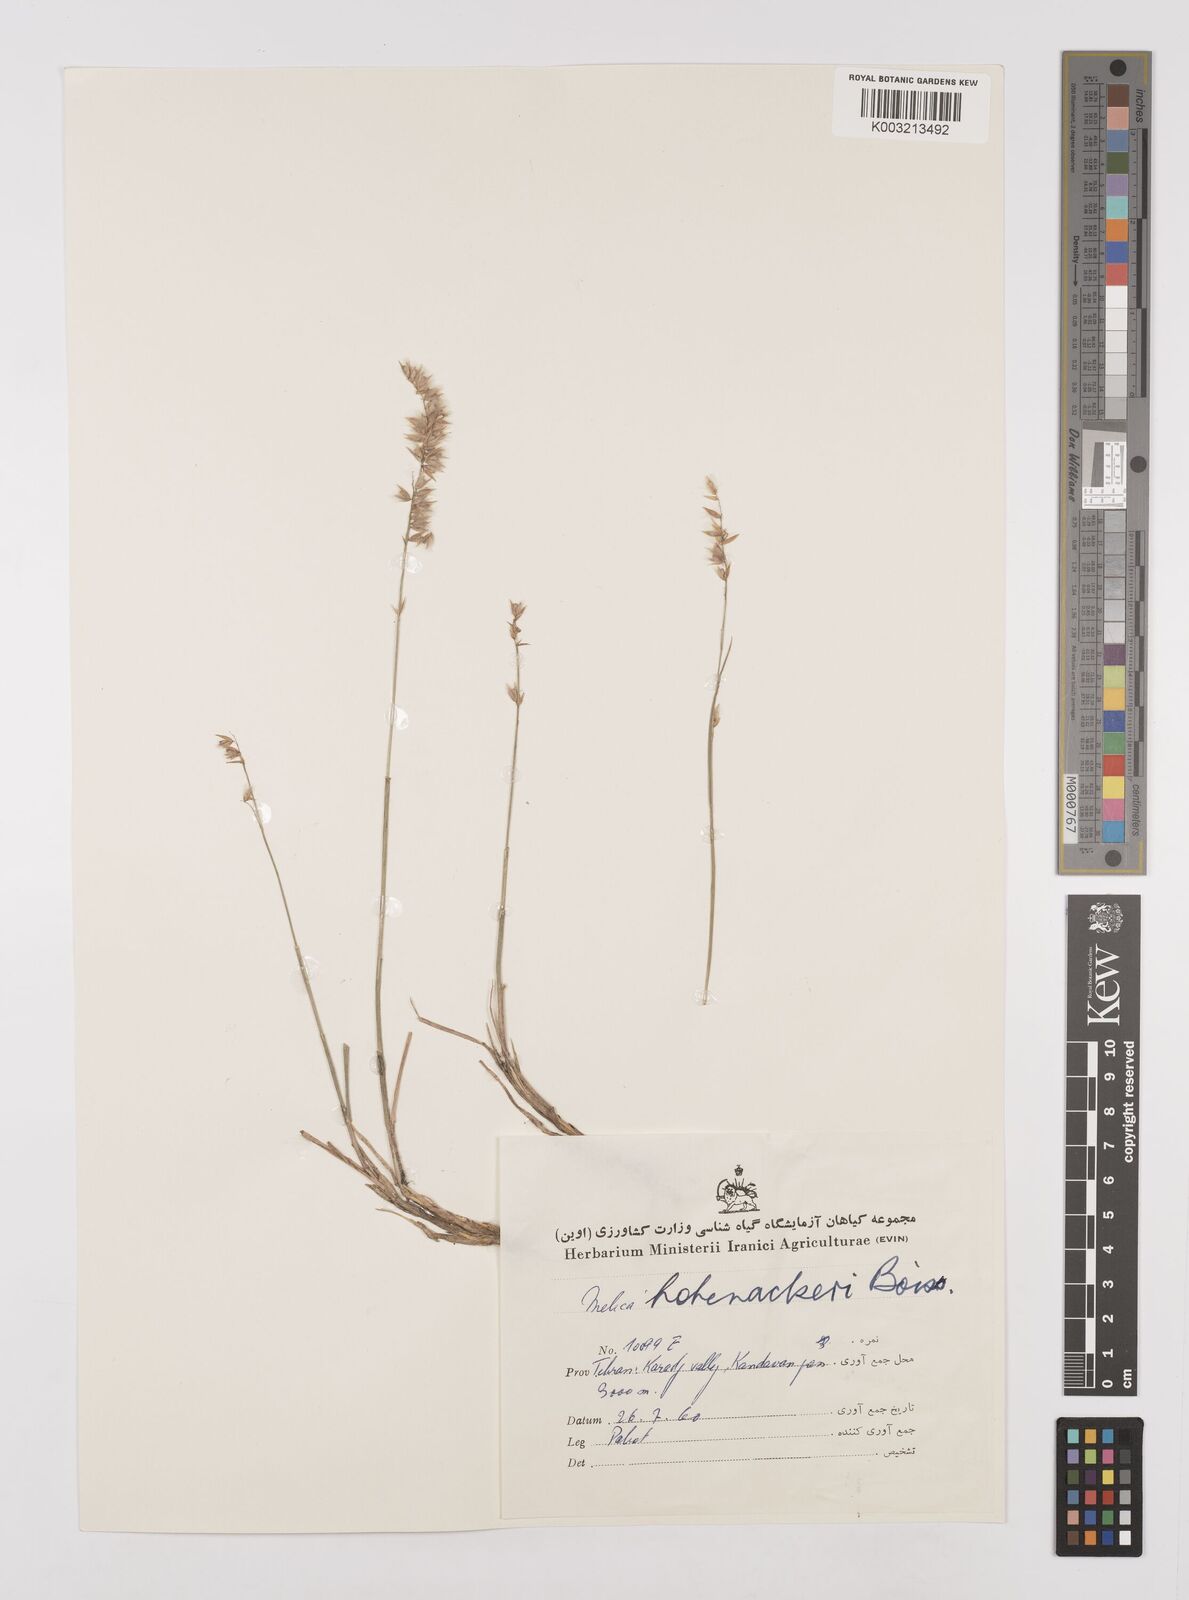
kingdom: Plantae
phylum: Tracheophyta
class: Liliopsida
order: Poales
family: Poaceae
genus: Melica
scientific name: Melica persica
